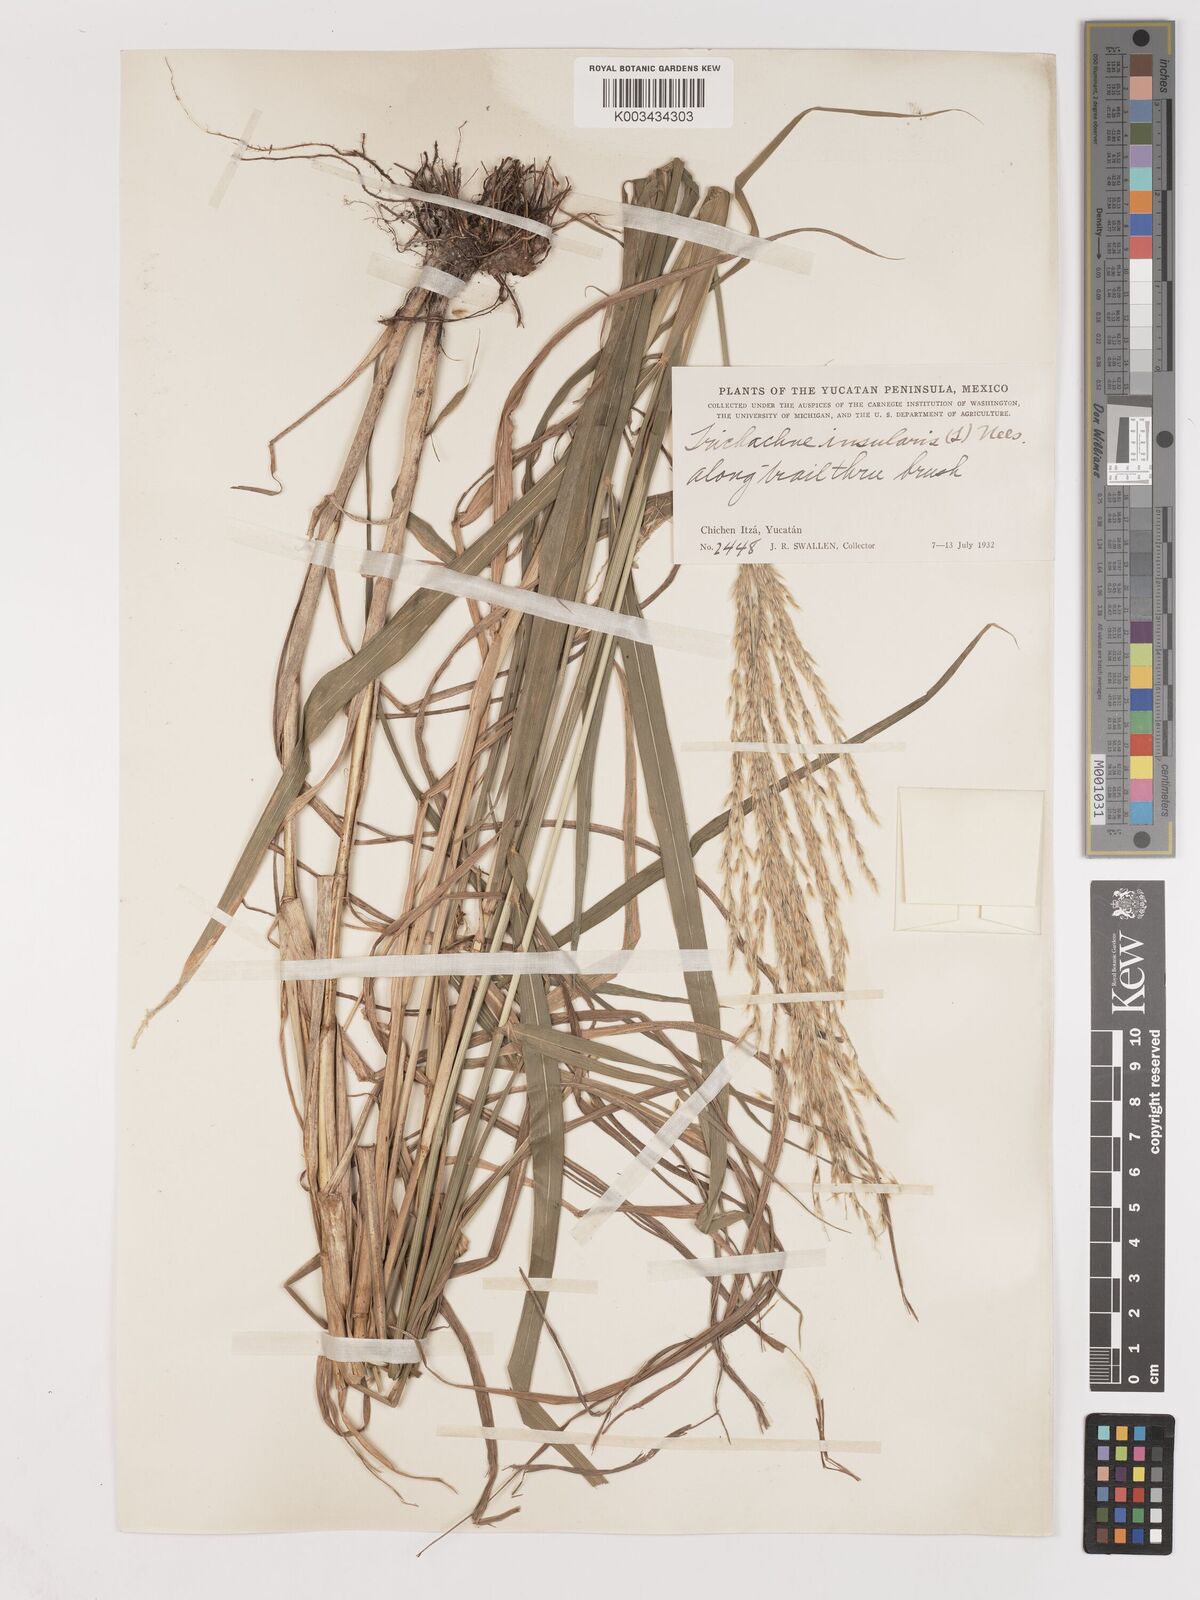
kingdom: Plantae
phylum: Tracheophyta
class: Liliopsida
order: Poales
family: Poaceae
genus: Digitaria
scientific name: Digitaria insularis
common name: Sourgrass
